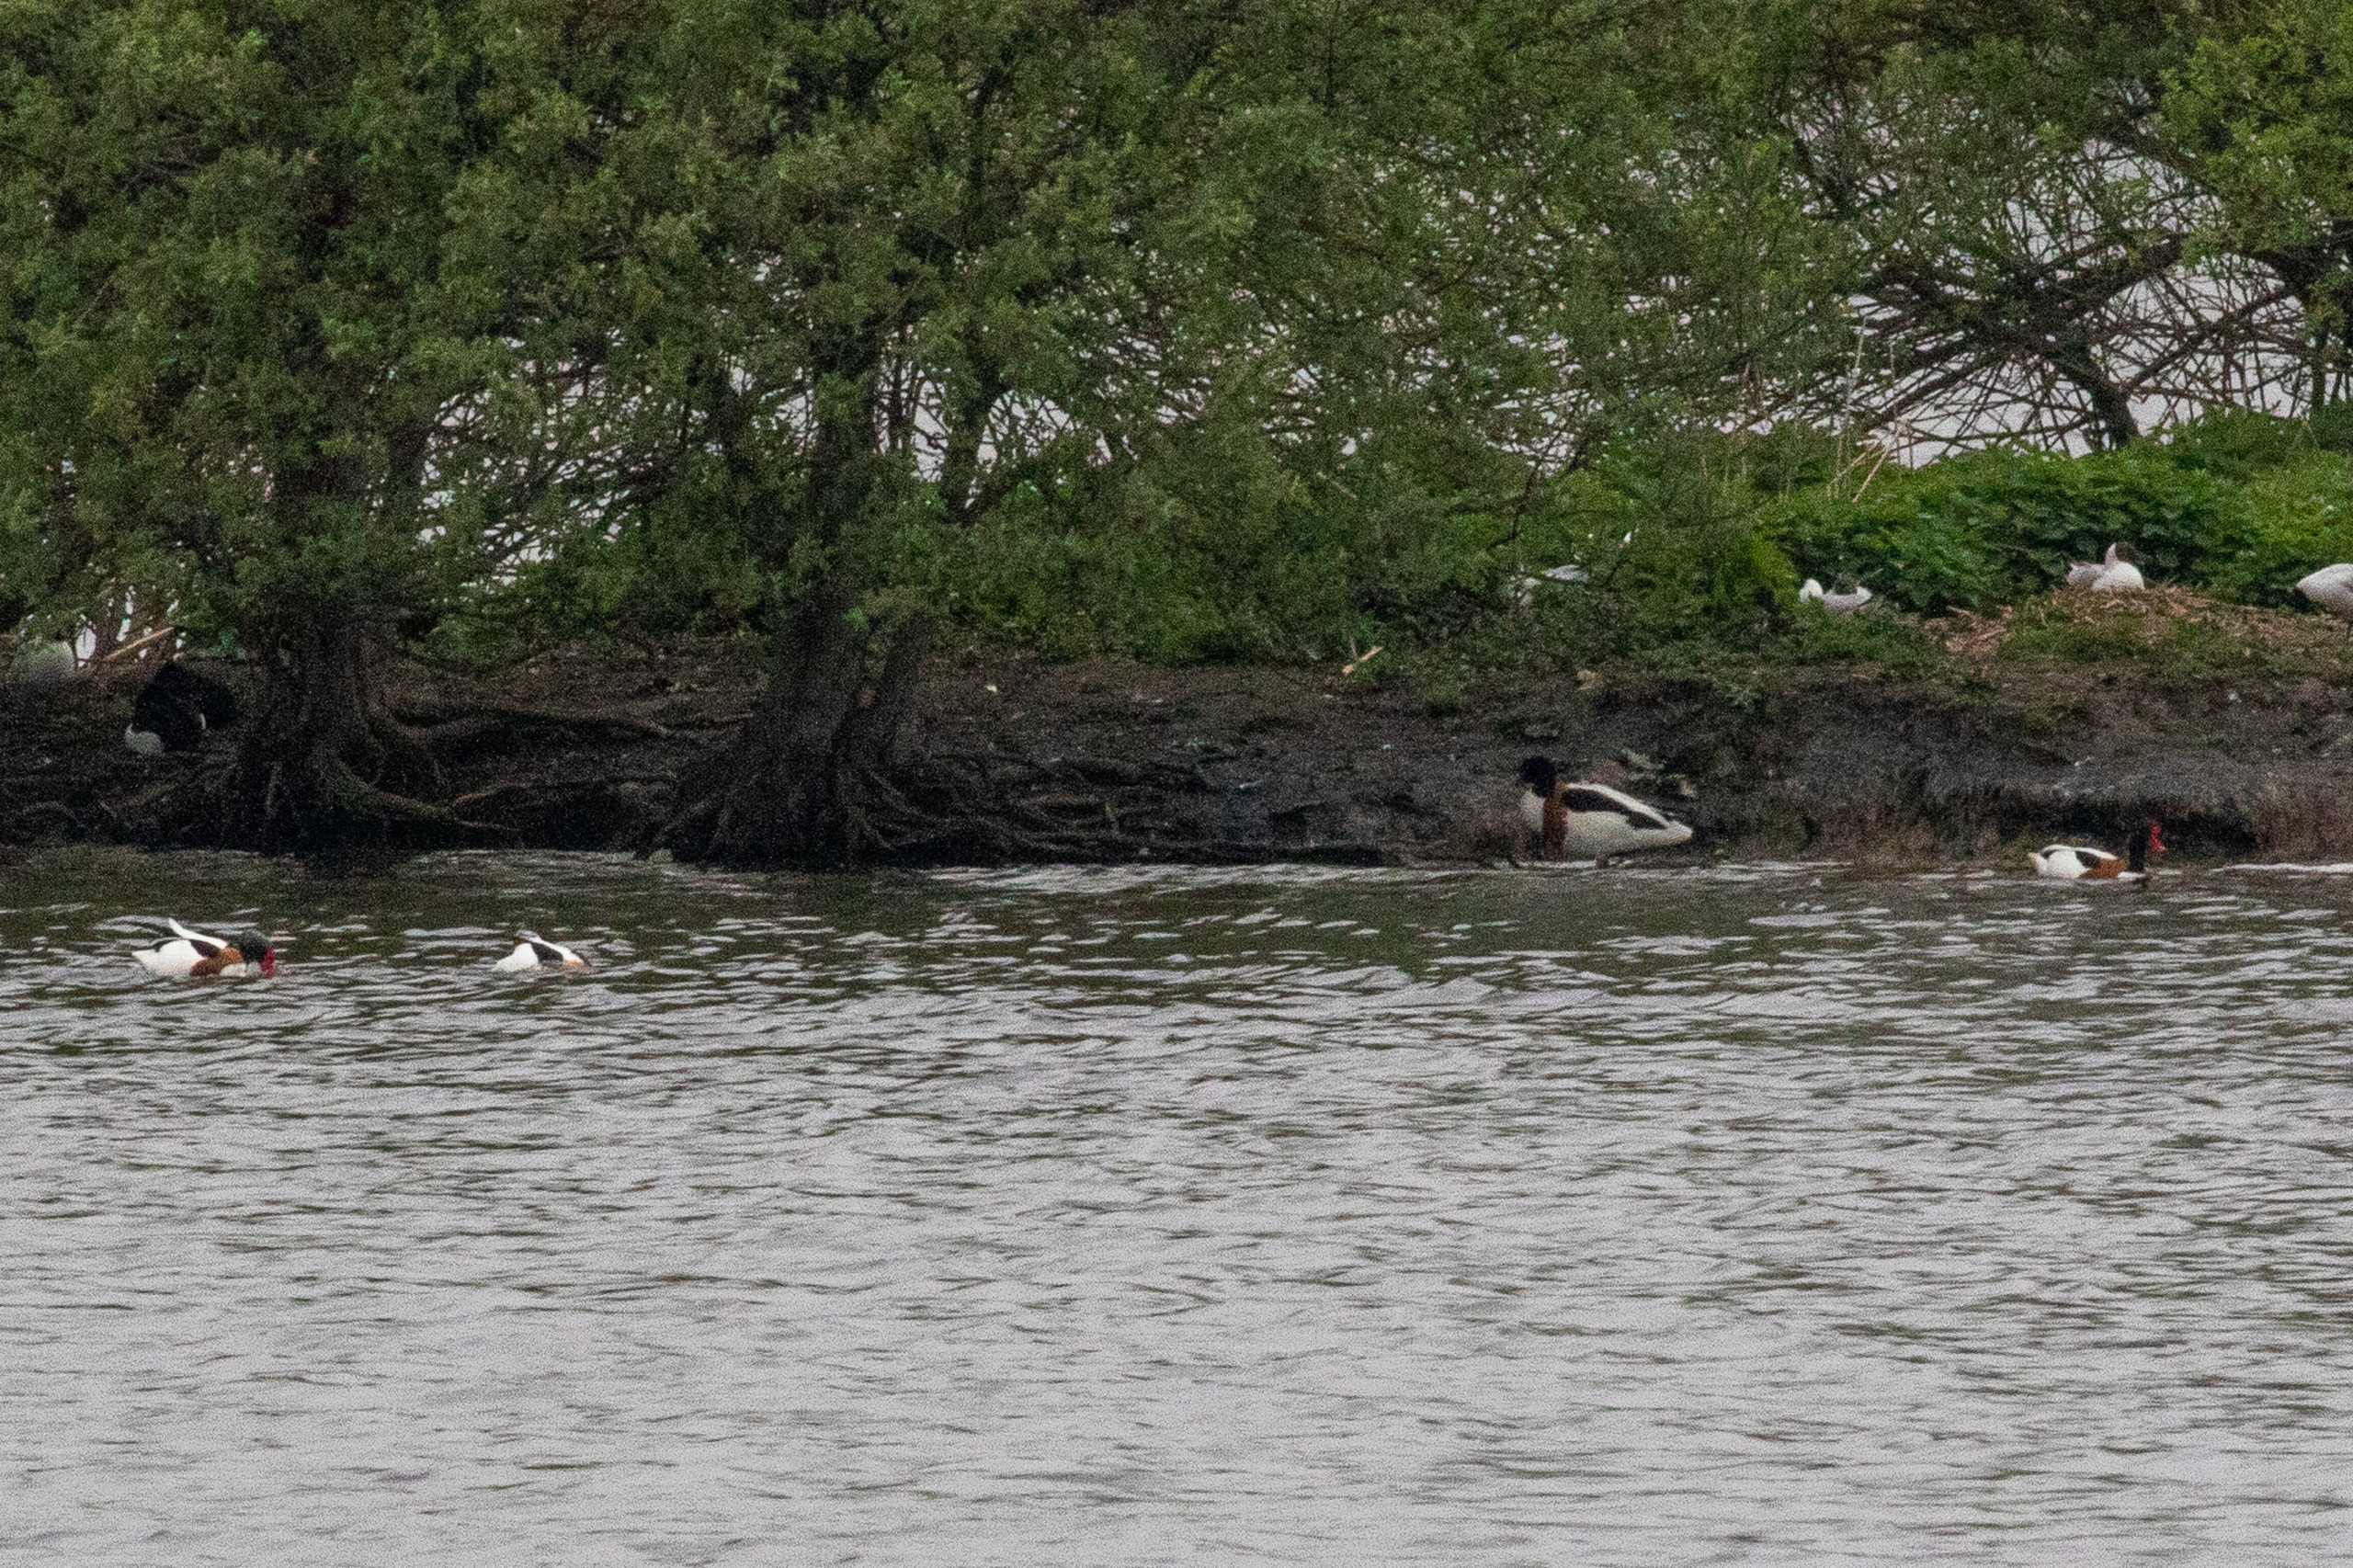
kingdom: Animalia
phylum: Chordata
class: Aves
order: Anseriformes
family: Anatidae
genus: Tadorna
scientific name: Tadorna tadorna
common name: Gravand
